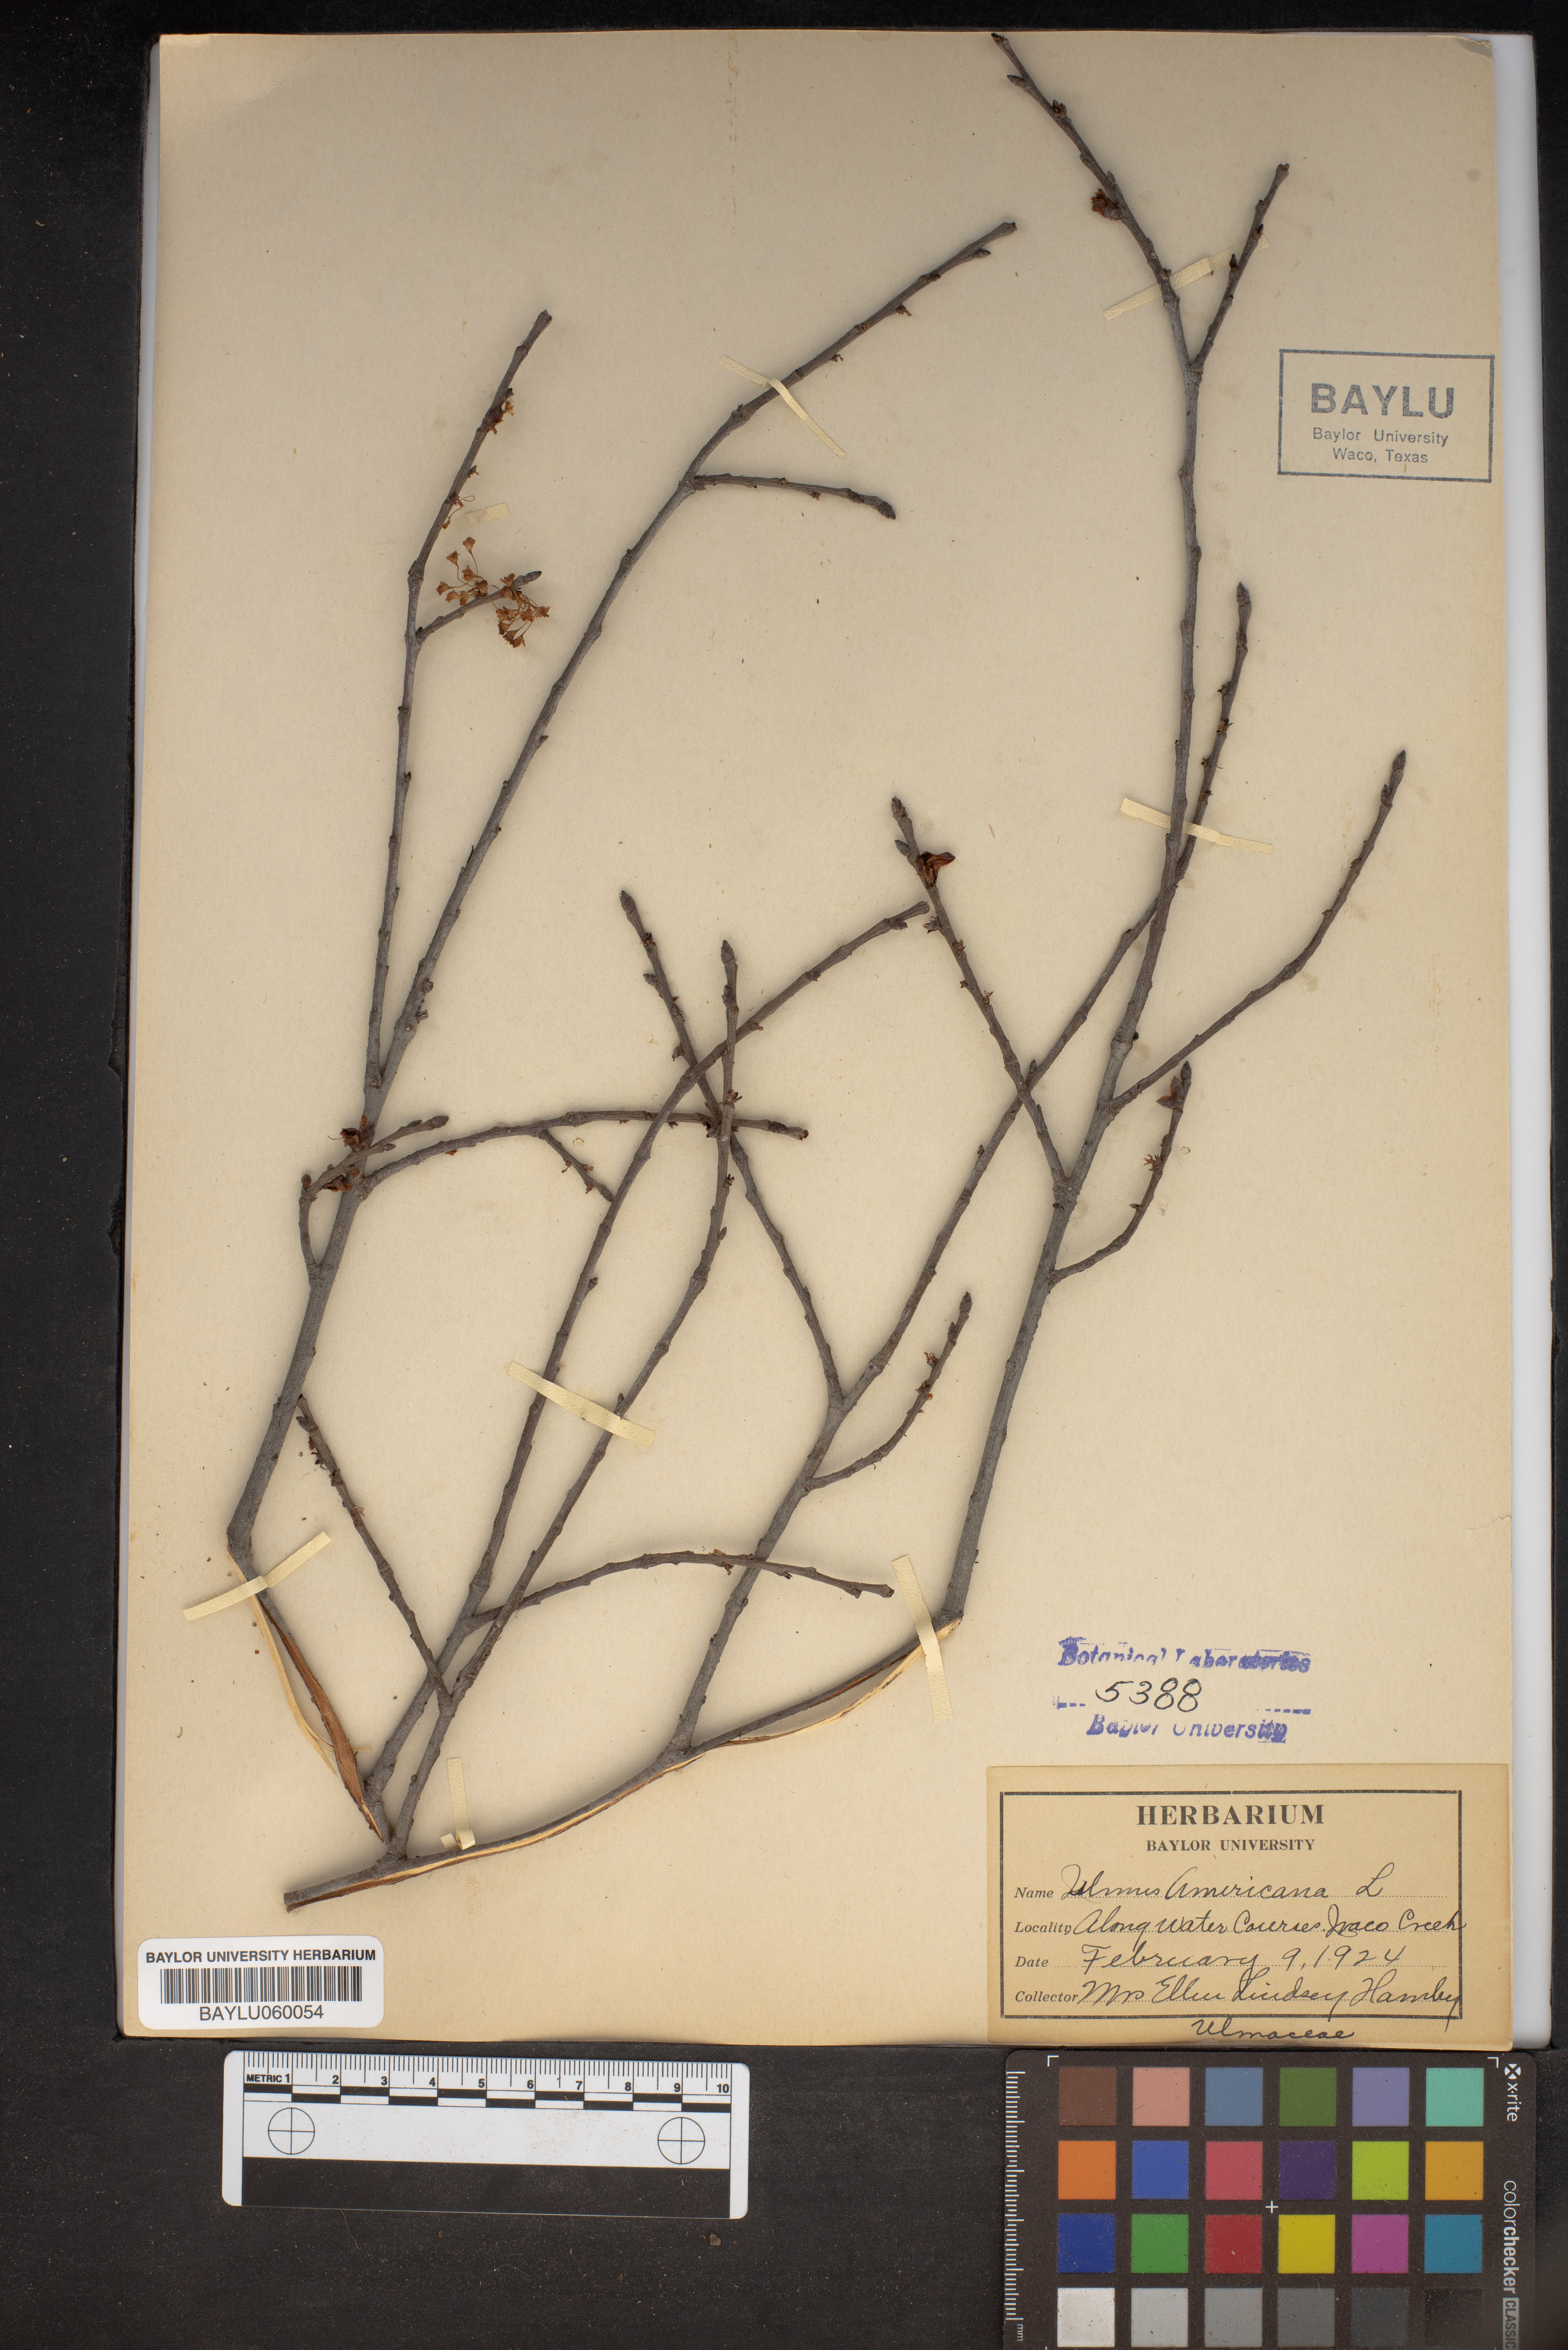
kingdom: Plantae
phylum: Tracheophyta
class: Magnoliopsida
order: Rosales
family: Ulmaceae
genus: Ulmus
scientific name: Ulmus americana
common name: American elm
